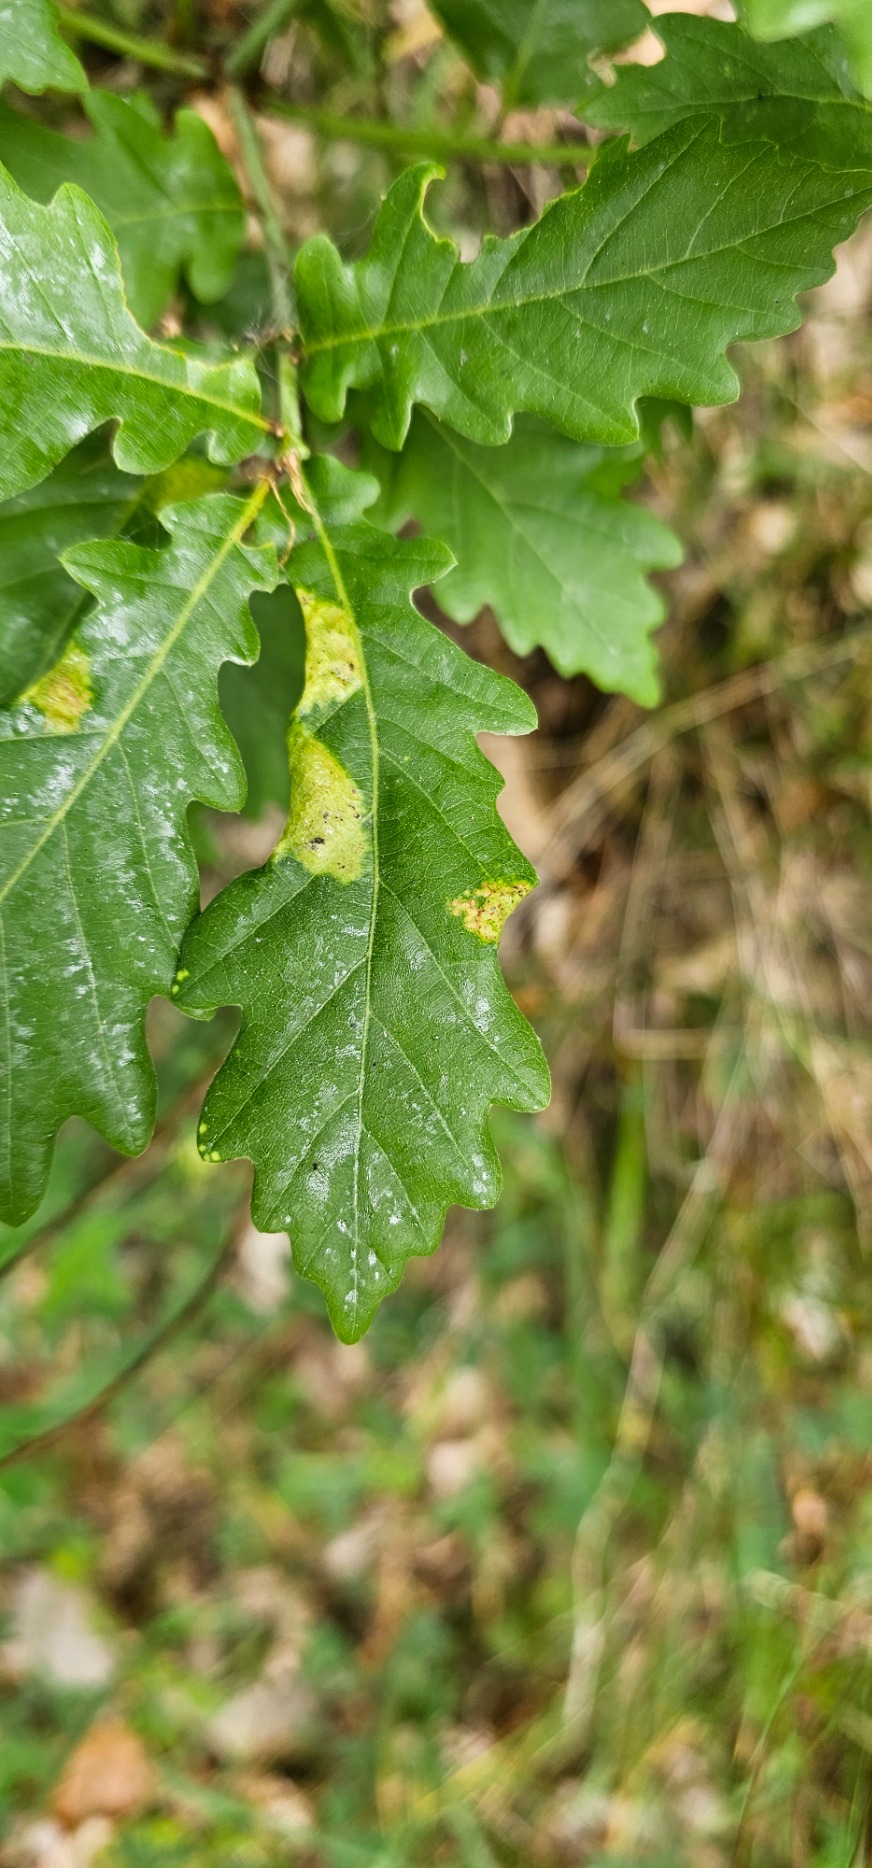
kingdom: Animalia
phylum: Arthropoda
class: Insecta
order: Diptera
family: Cecidomyiidae
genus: Macrodiplosis
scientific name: Macrodiplosis pustularis
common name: Marmorgalmyg
